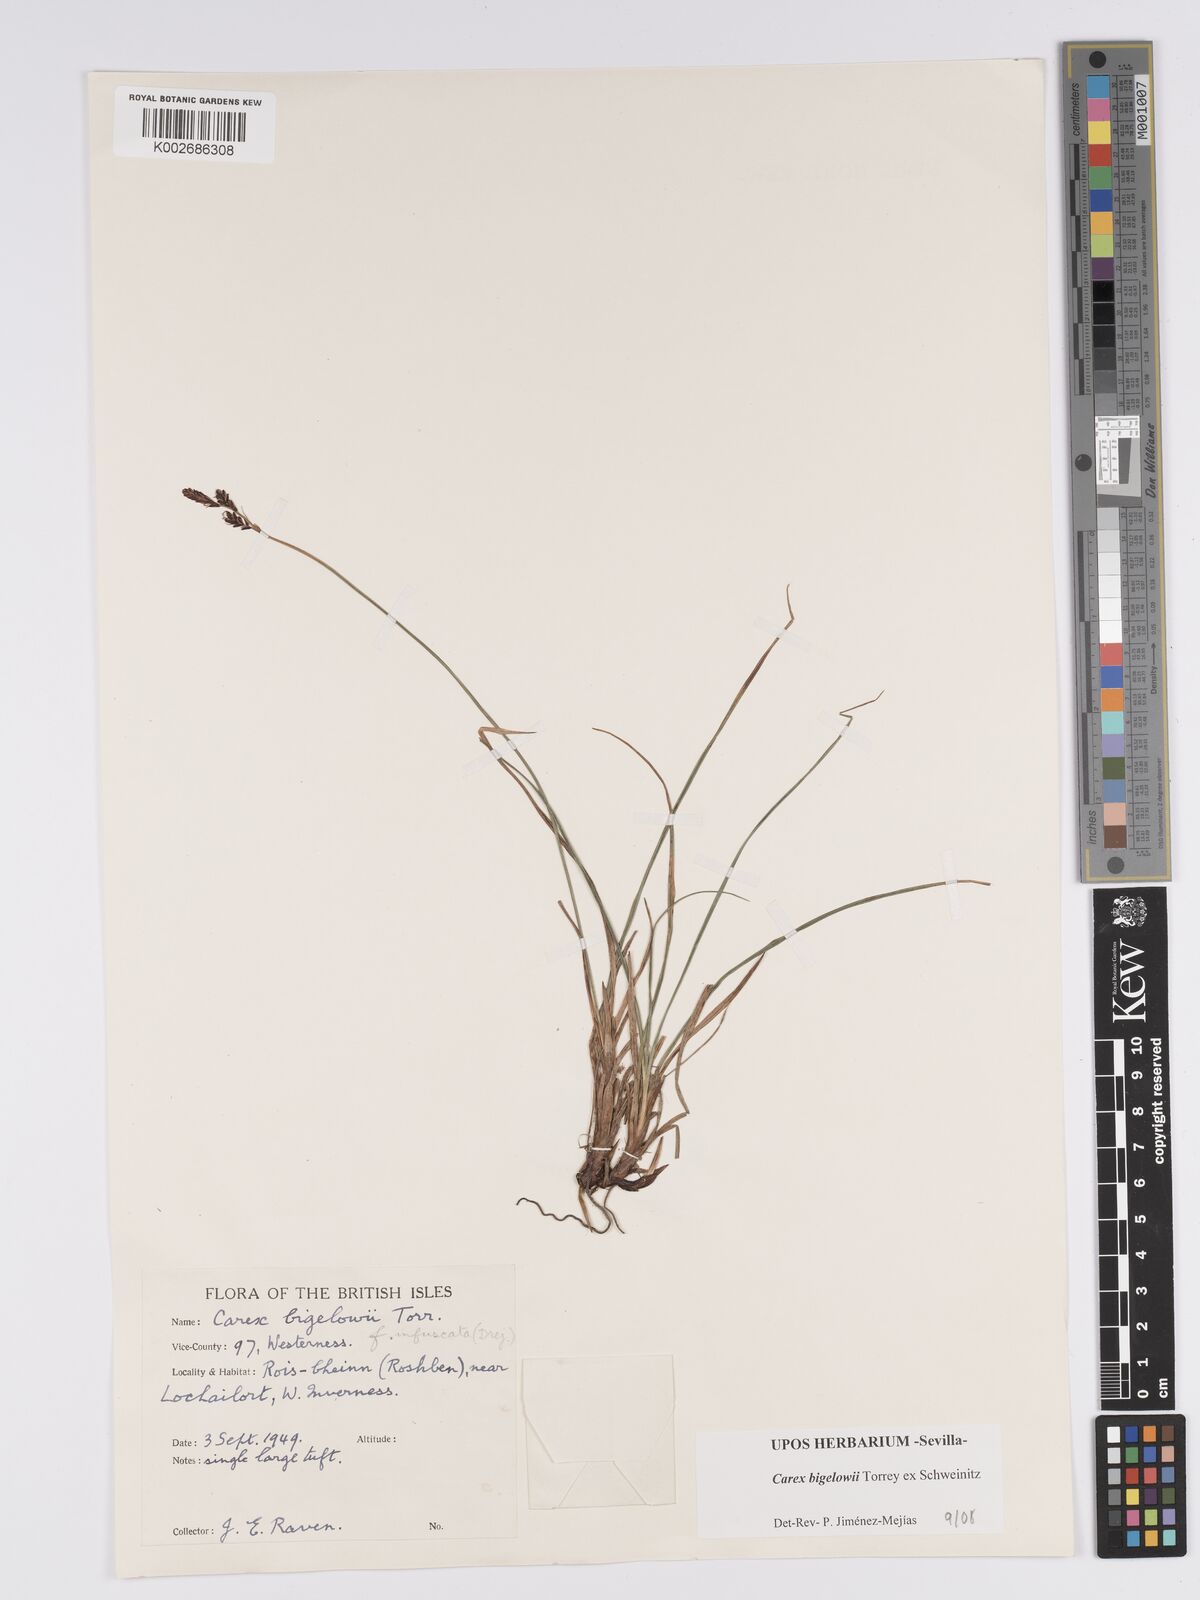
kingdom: Plantae
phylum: Tracheophyta
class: Liliopsida
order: Poales
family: Cyperaceae
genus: Carex
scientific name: Carex bigelowii
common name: Stiff sedge
